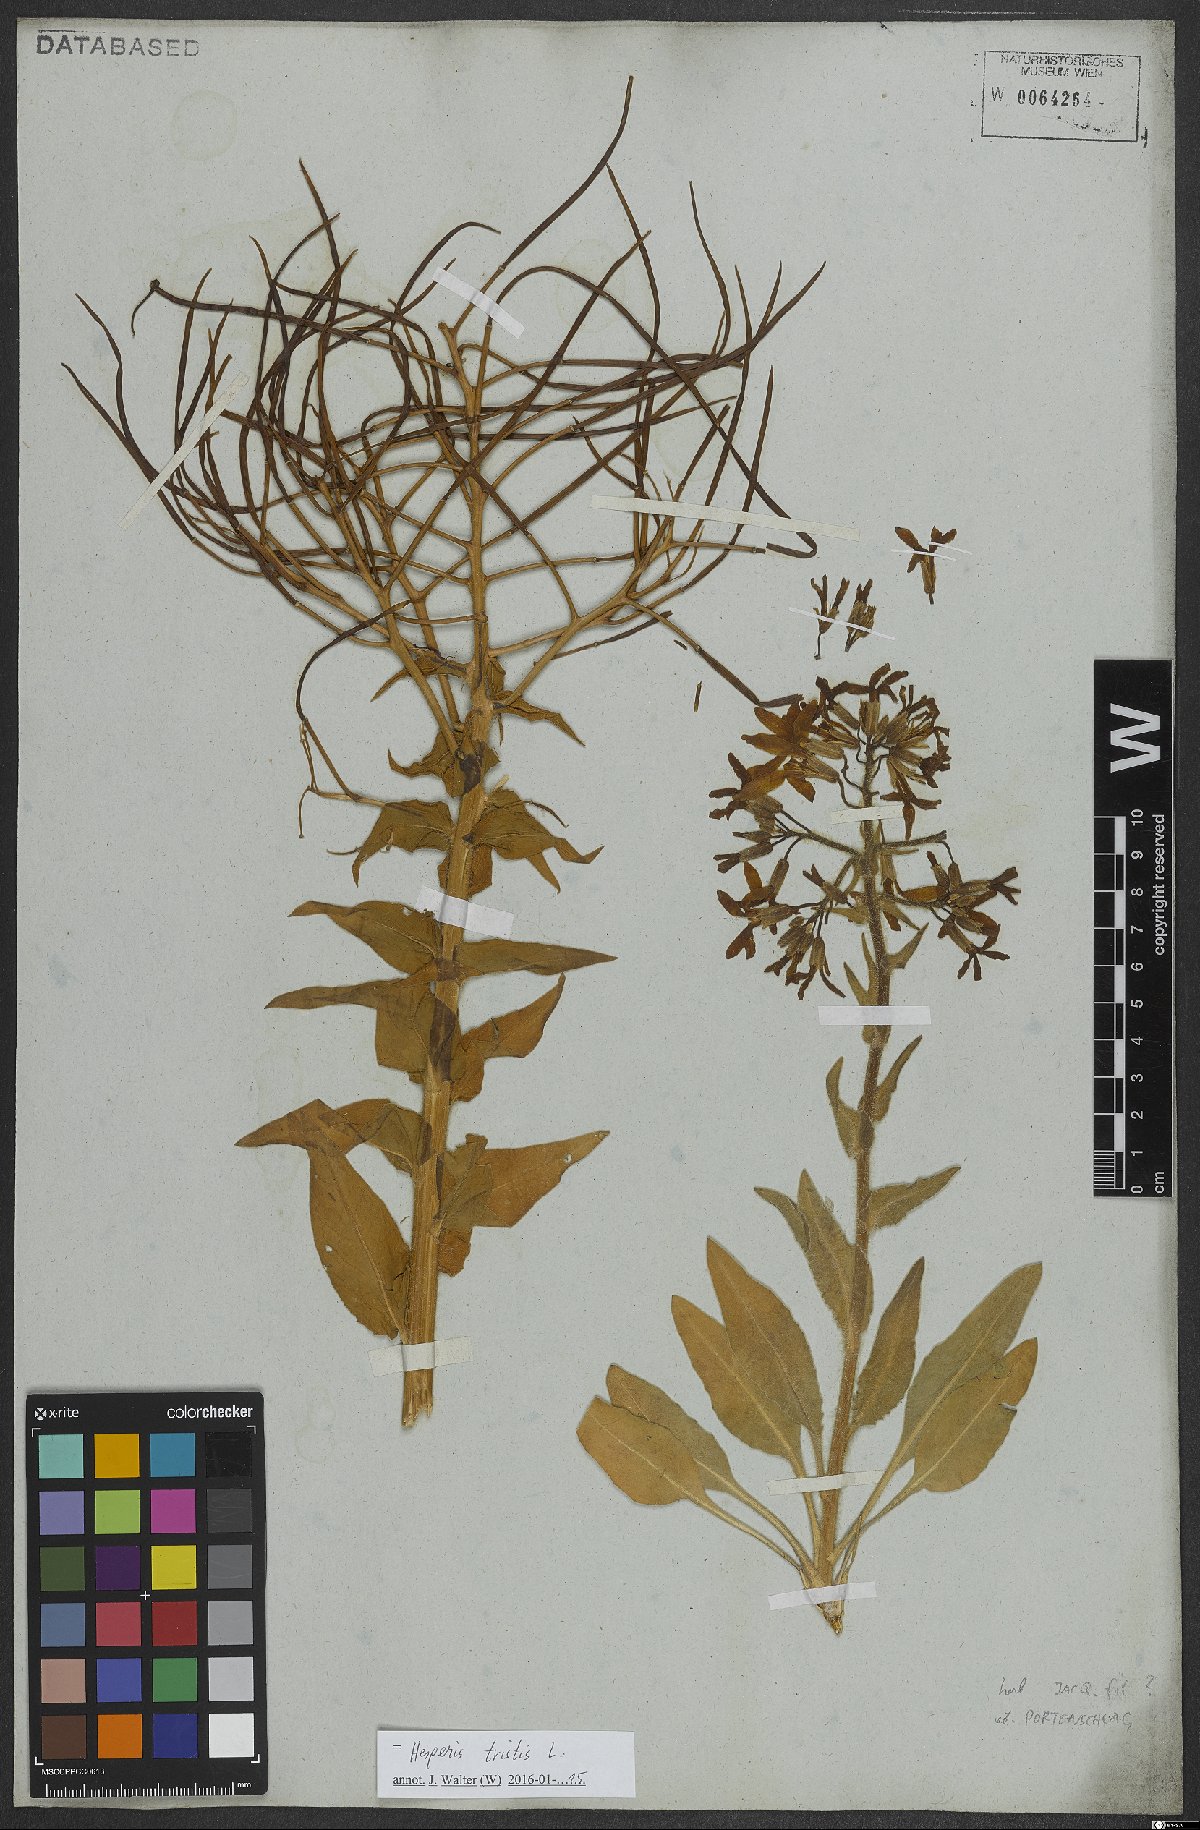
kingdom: Plantae
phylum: Tracheophyta
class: Magnoliopsida
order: Brassicales
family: Brassicaceae
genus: Hesperis
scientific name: Hesperis tristis
